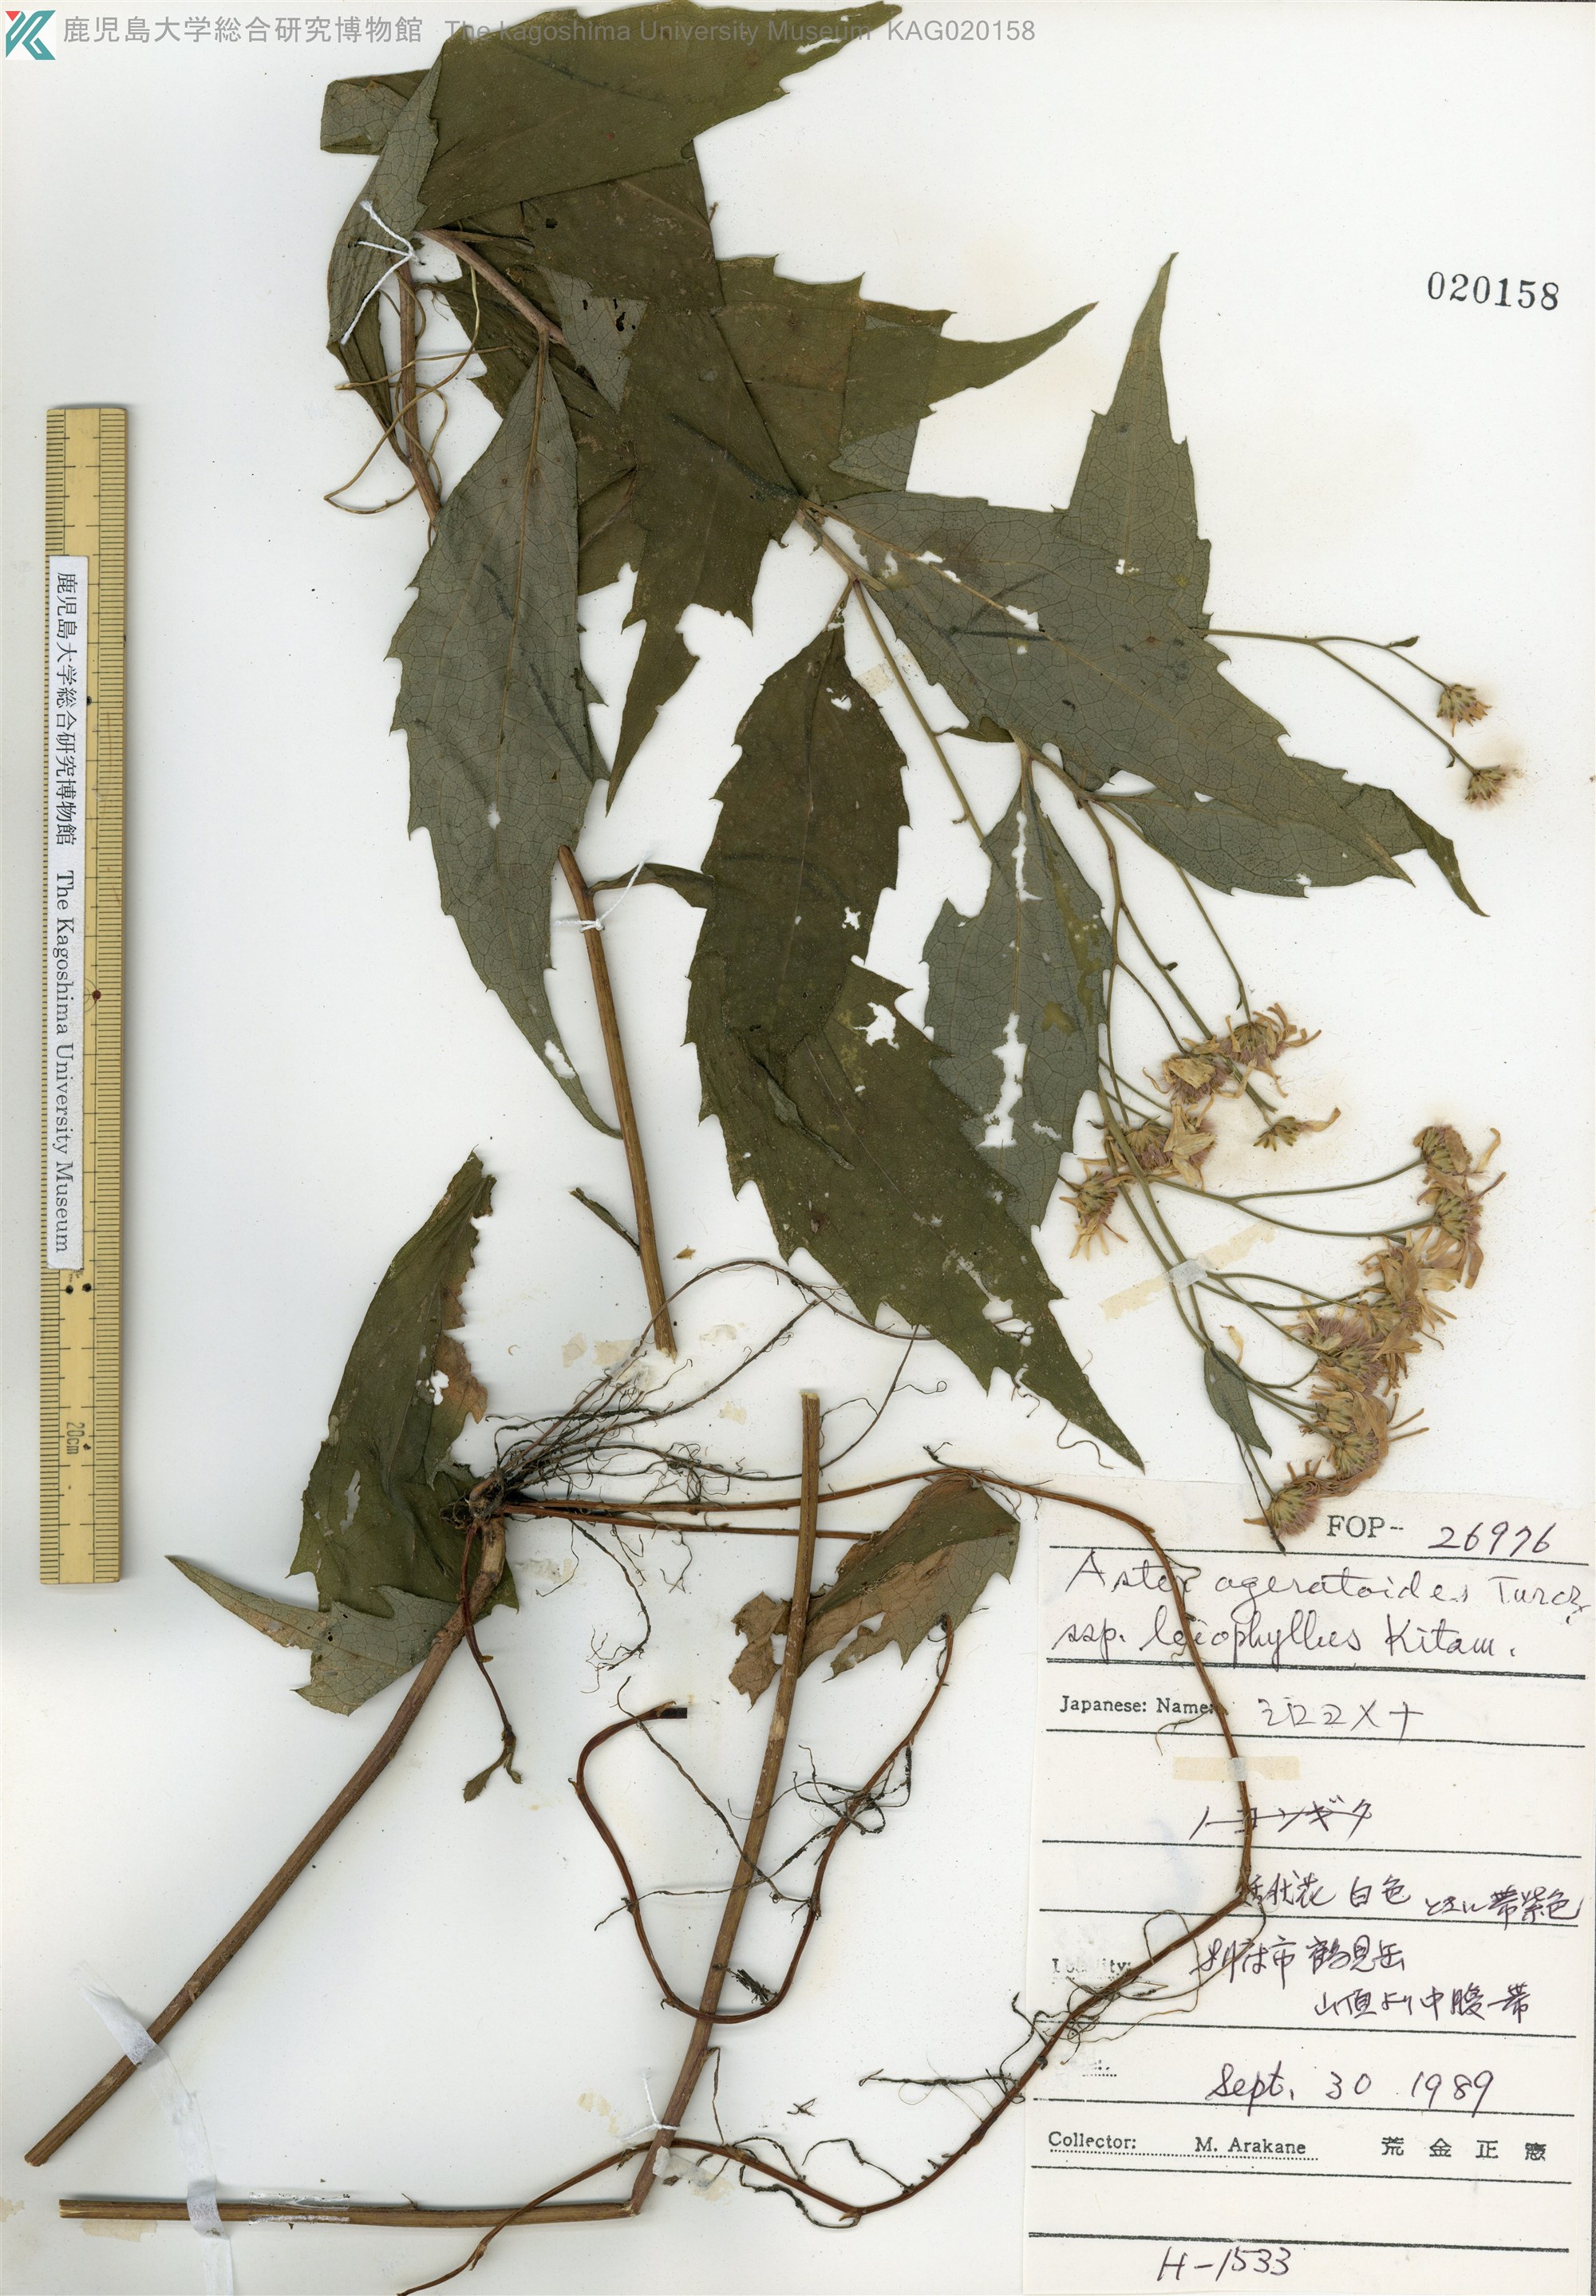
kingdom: Plantae
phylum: Tracheophyta
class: Magnoliopsida
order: Asterales
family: Asteraceae
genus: Aster
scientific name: Aster ageratoides
